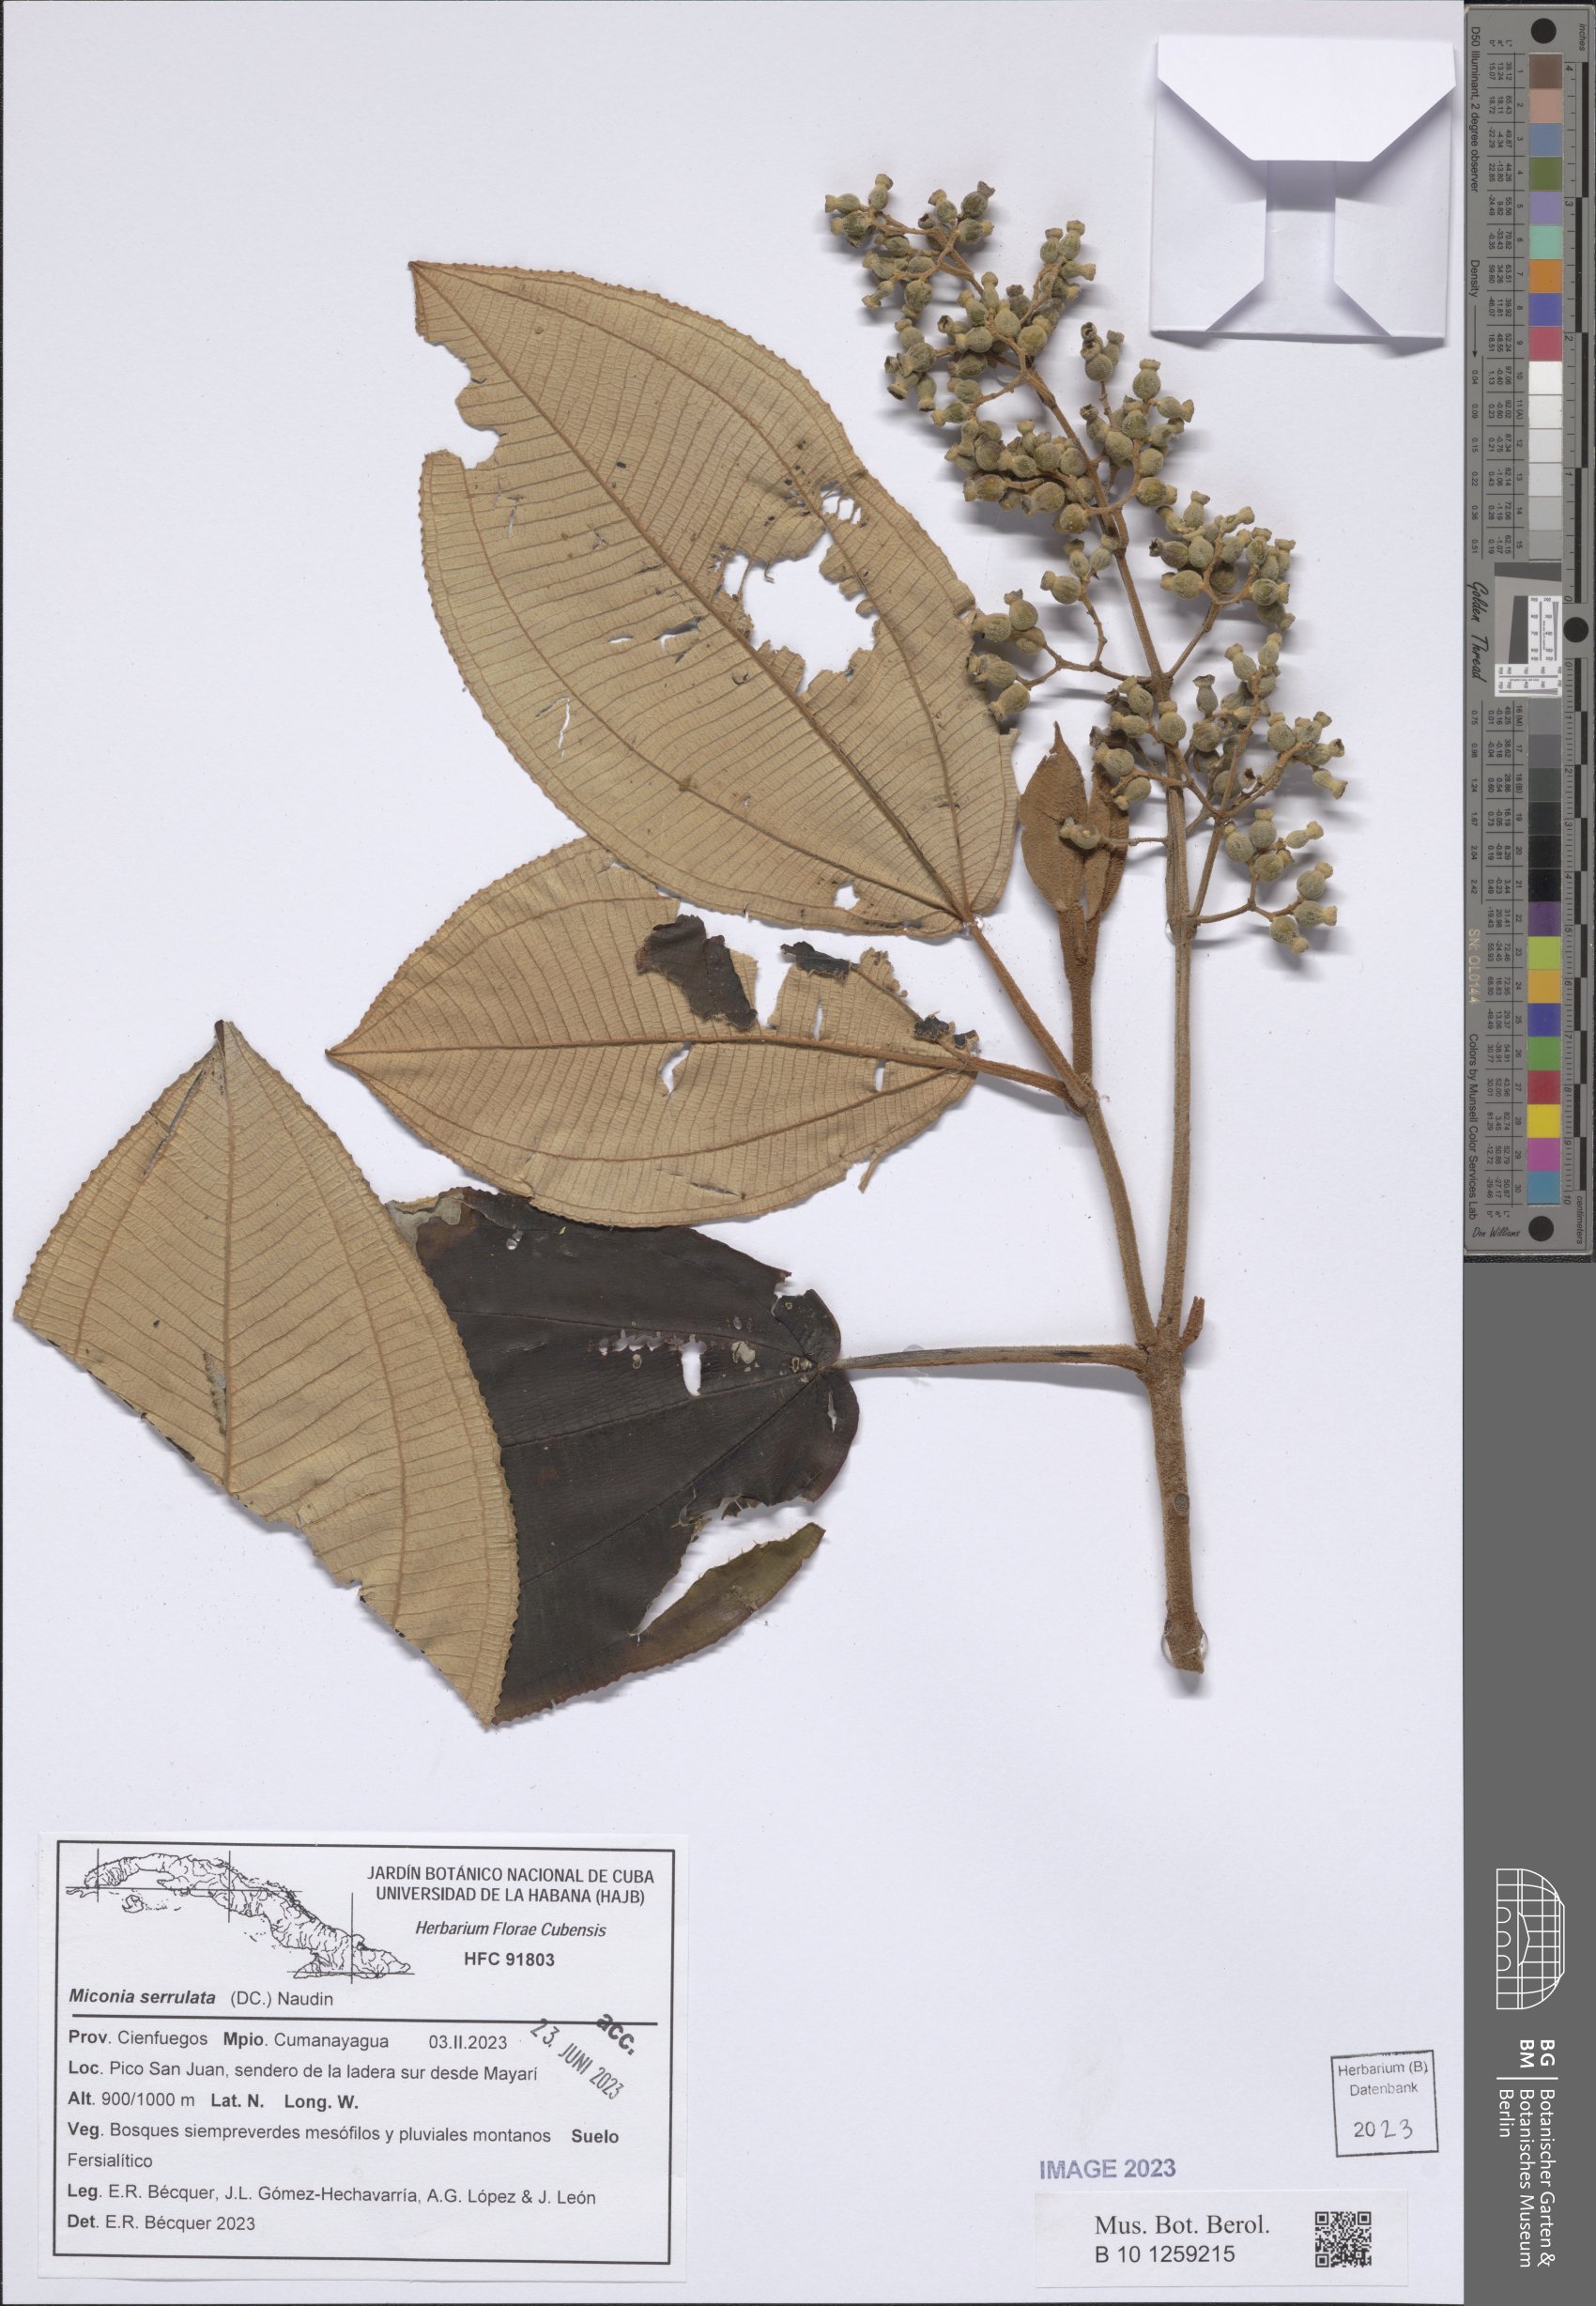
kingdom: Plantae
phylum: Tracheophyta
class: Magnoliopsida
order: Myrtales
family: Melastomataceae
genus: Miconia
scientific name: Miconia serrulata
